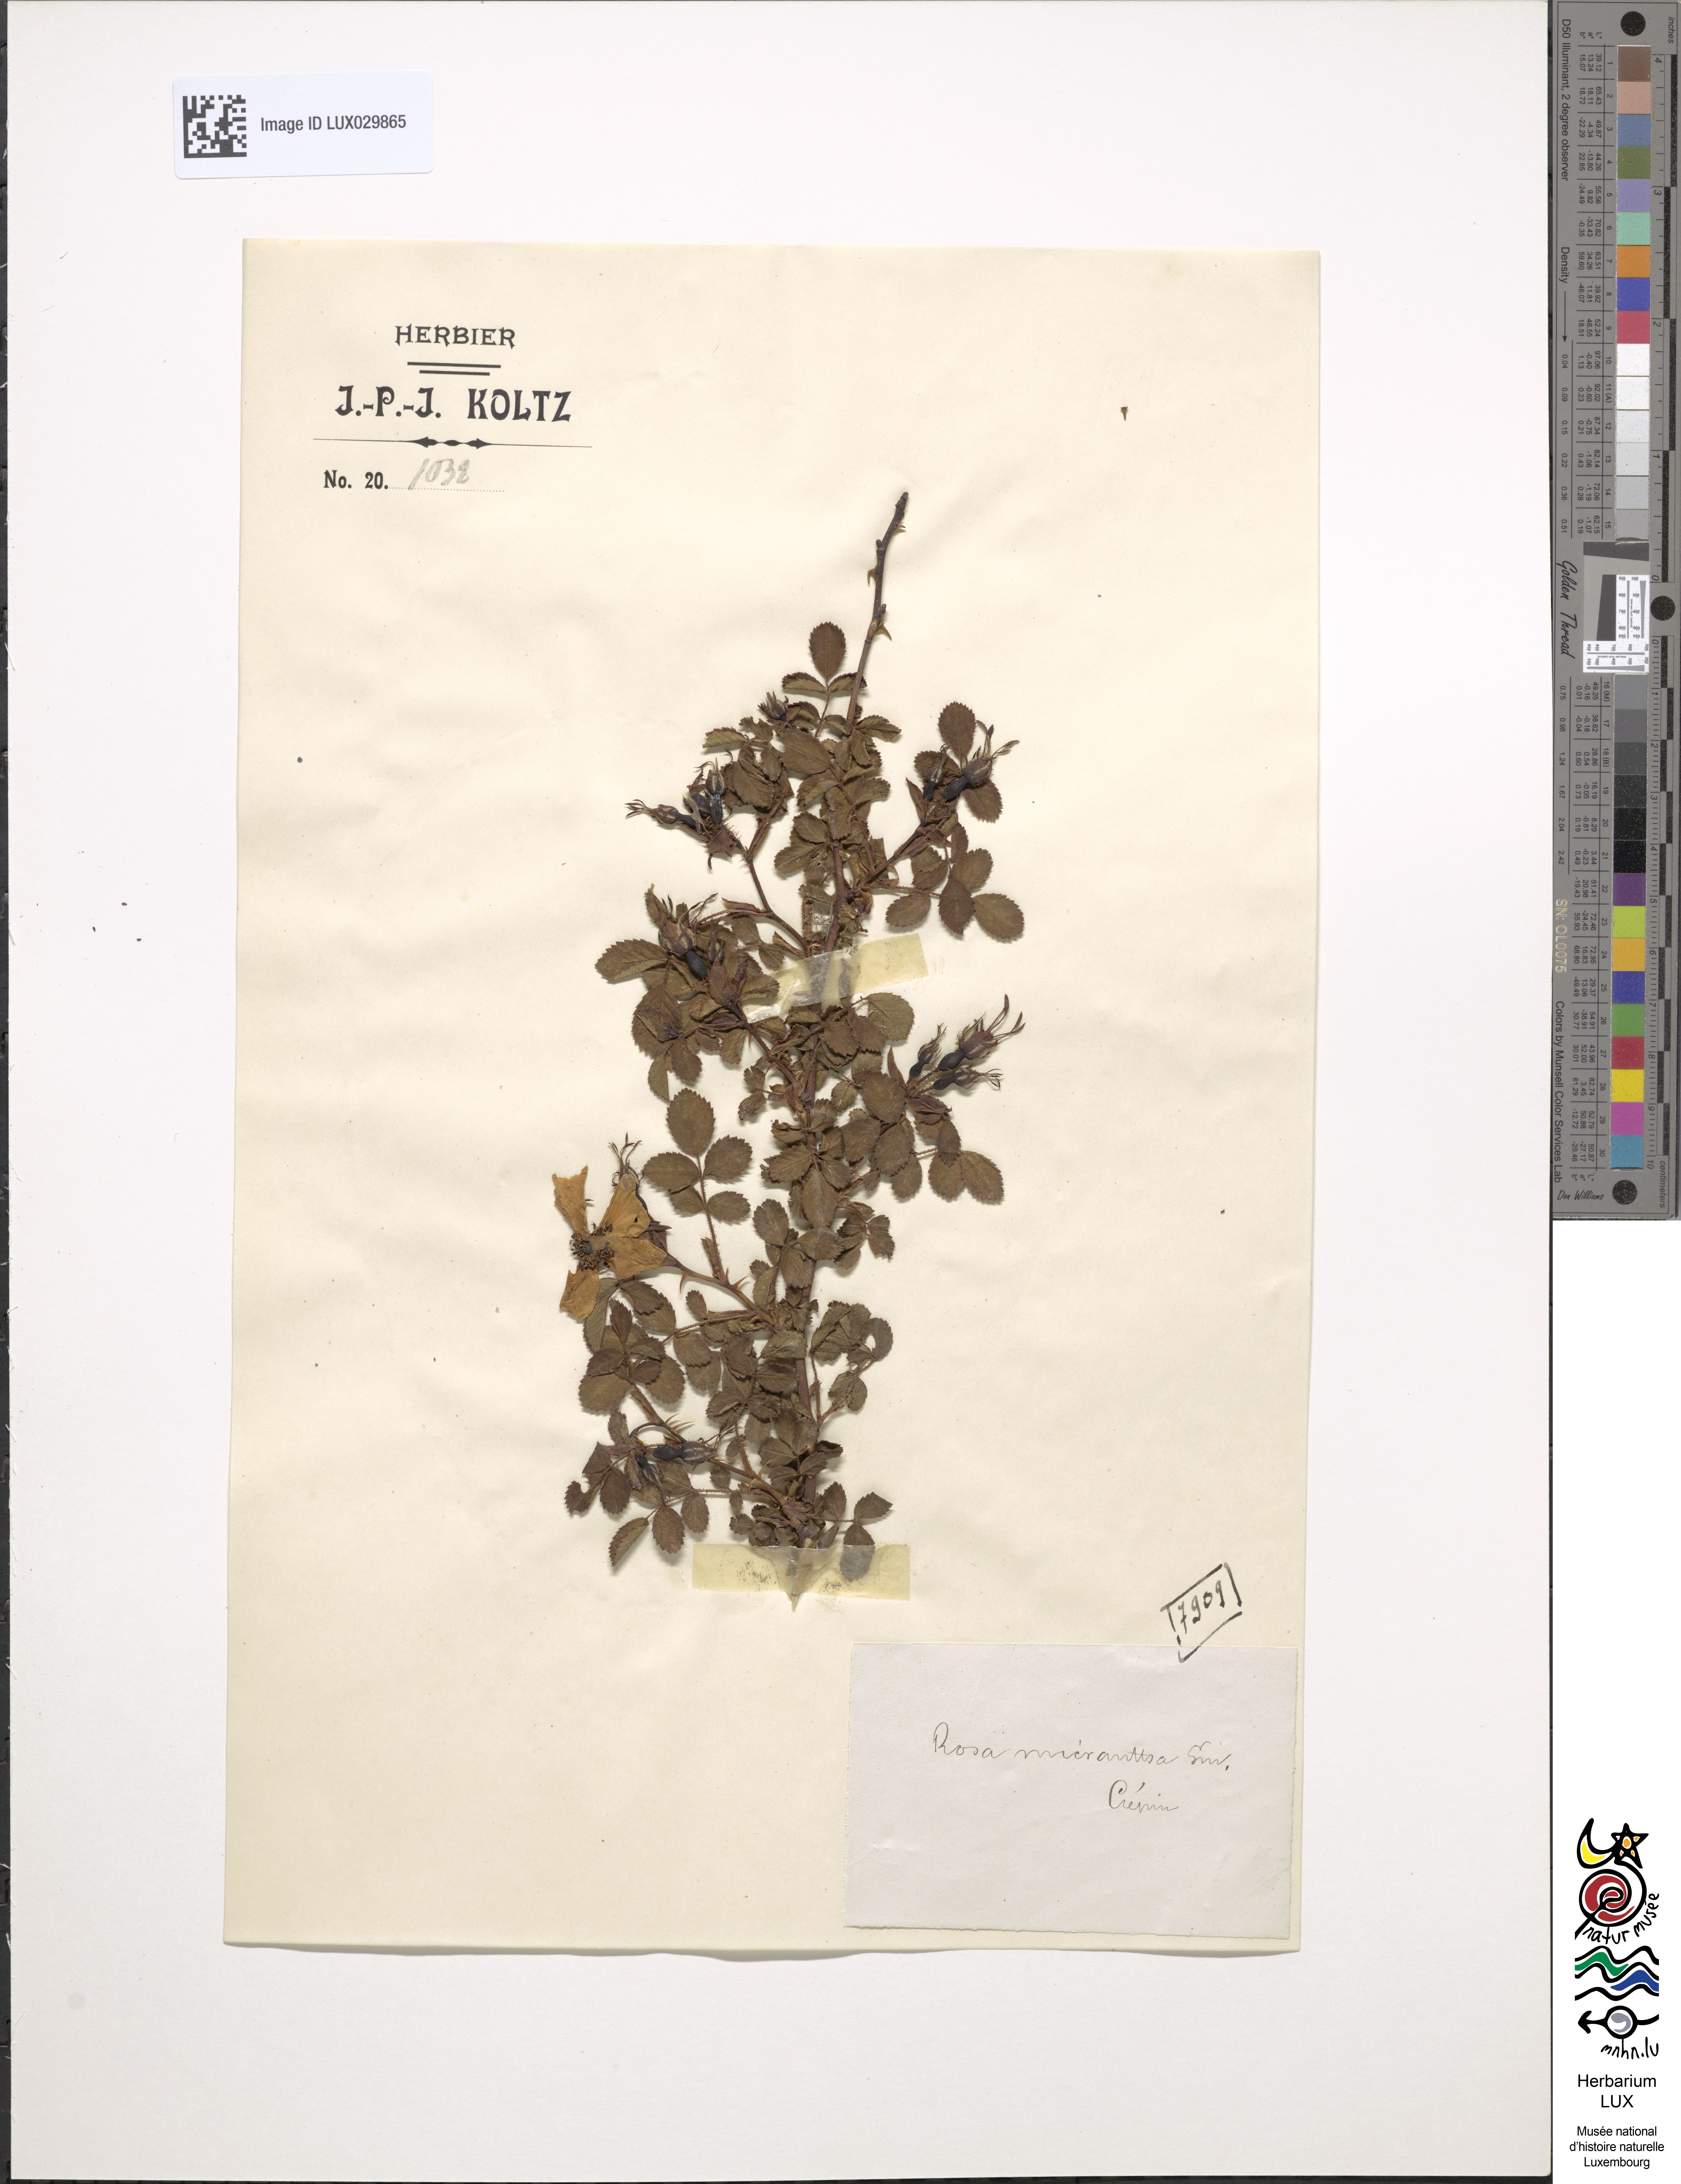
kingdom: Plantae
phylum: Tracheophyta
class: Magnoliopsida
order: Rosales
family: Rosaceae
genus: Rosa
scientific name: Rosa micrantha
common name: Small-flowered sweet-briar
